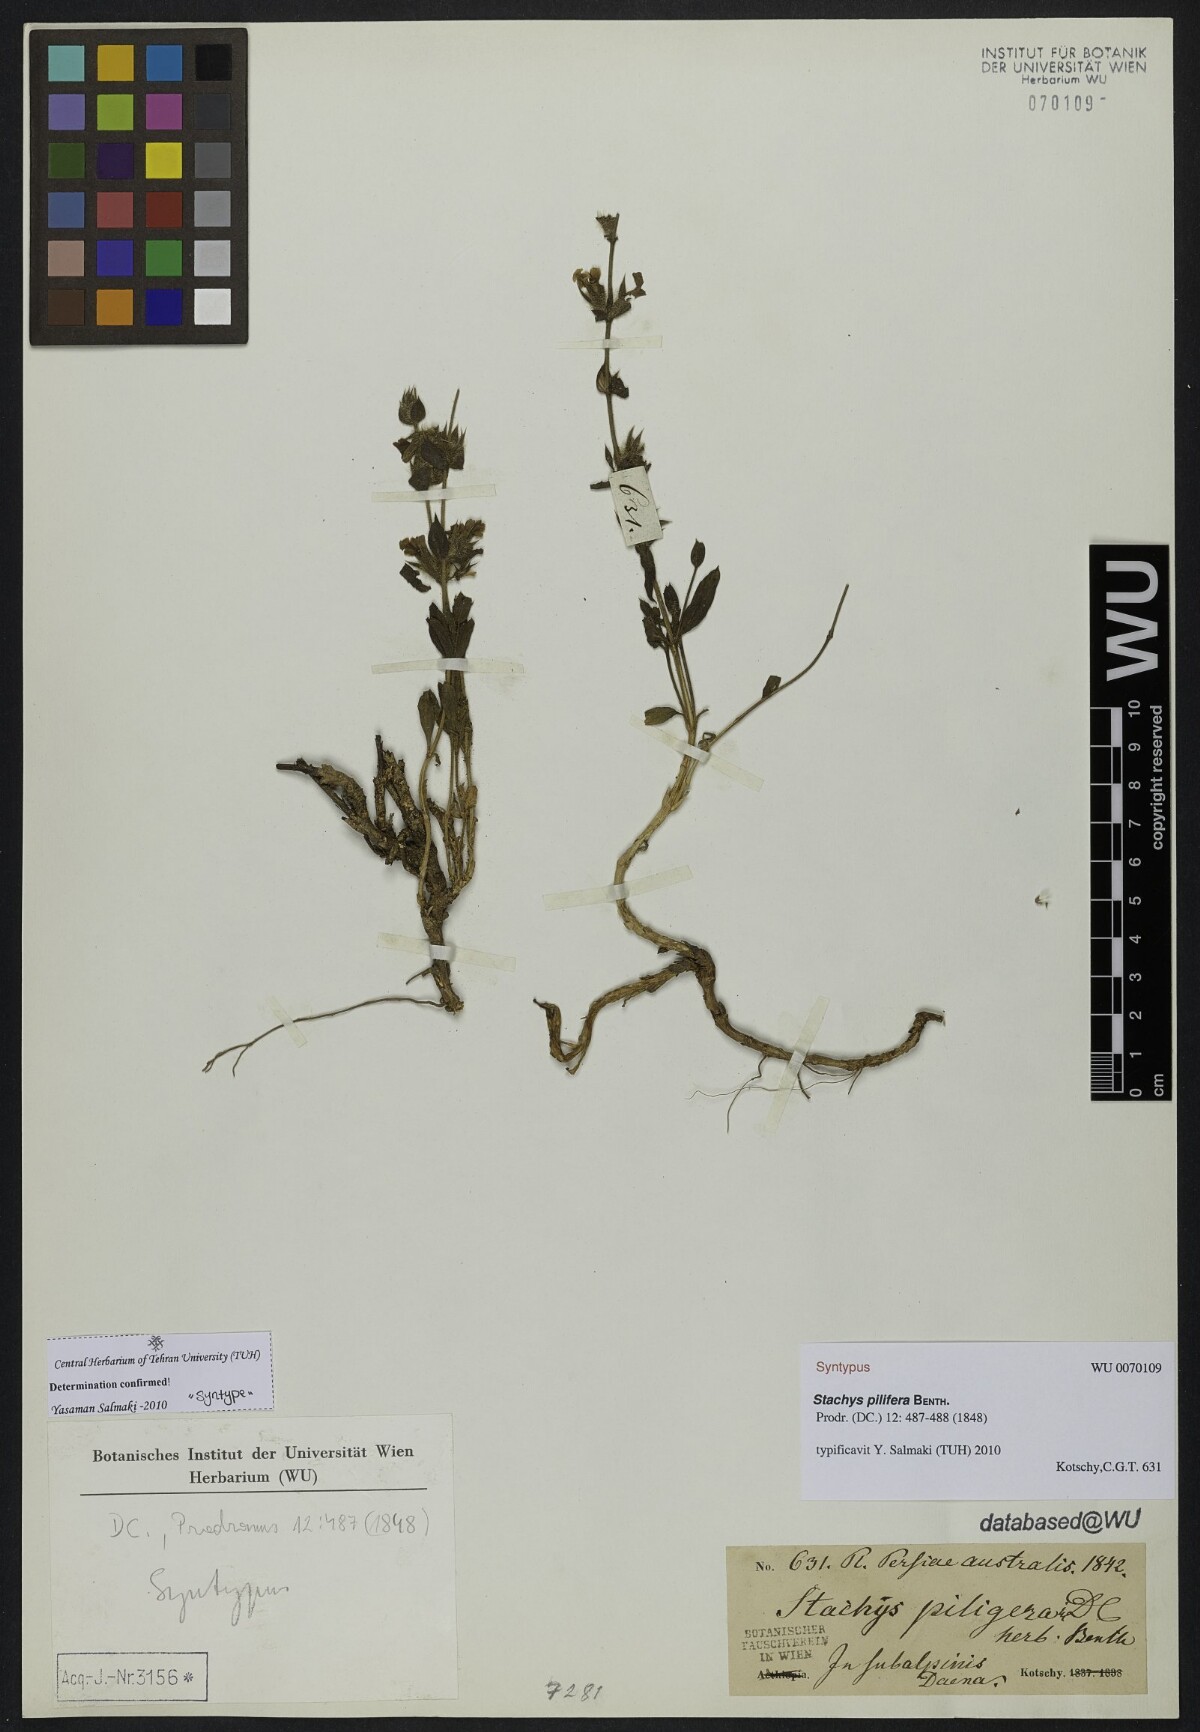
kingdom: Plantae
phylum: Tracheophyta
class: Magnoliopsida
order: Lamiales
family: Lamiaceae
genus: Stachys
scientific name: Stachys pilifera
